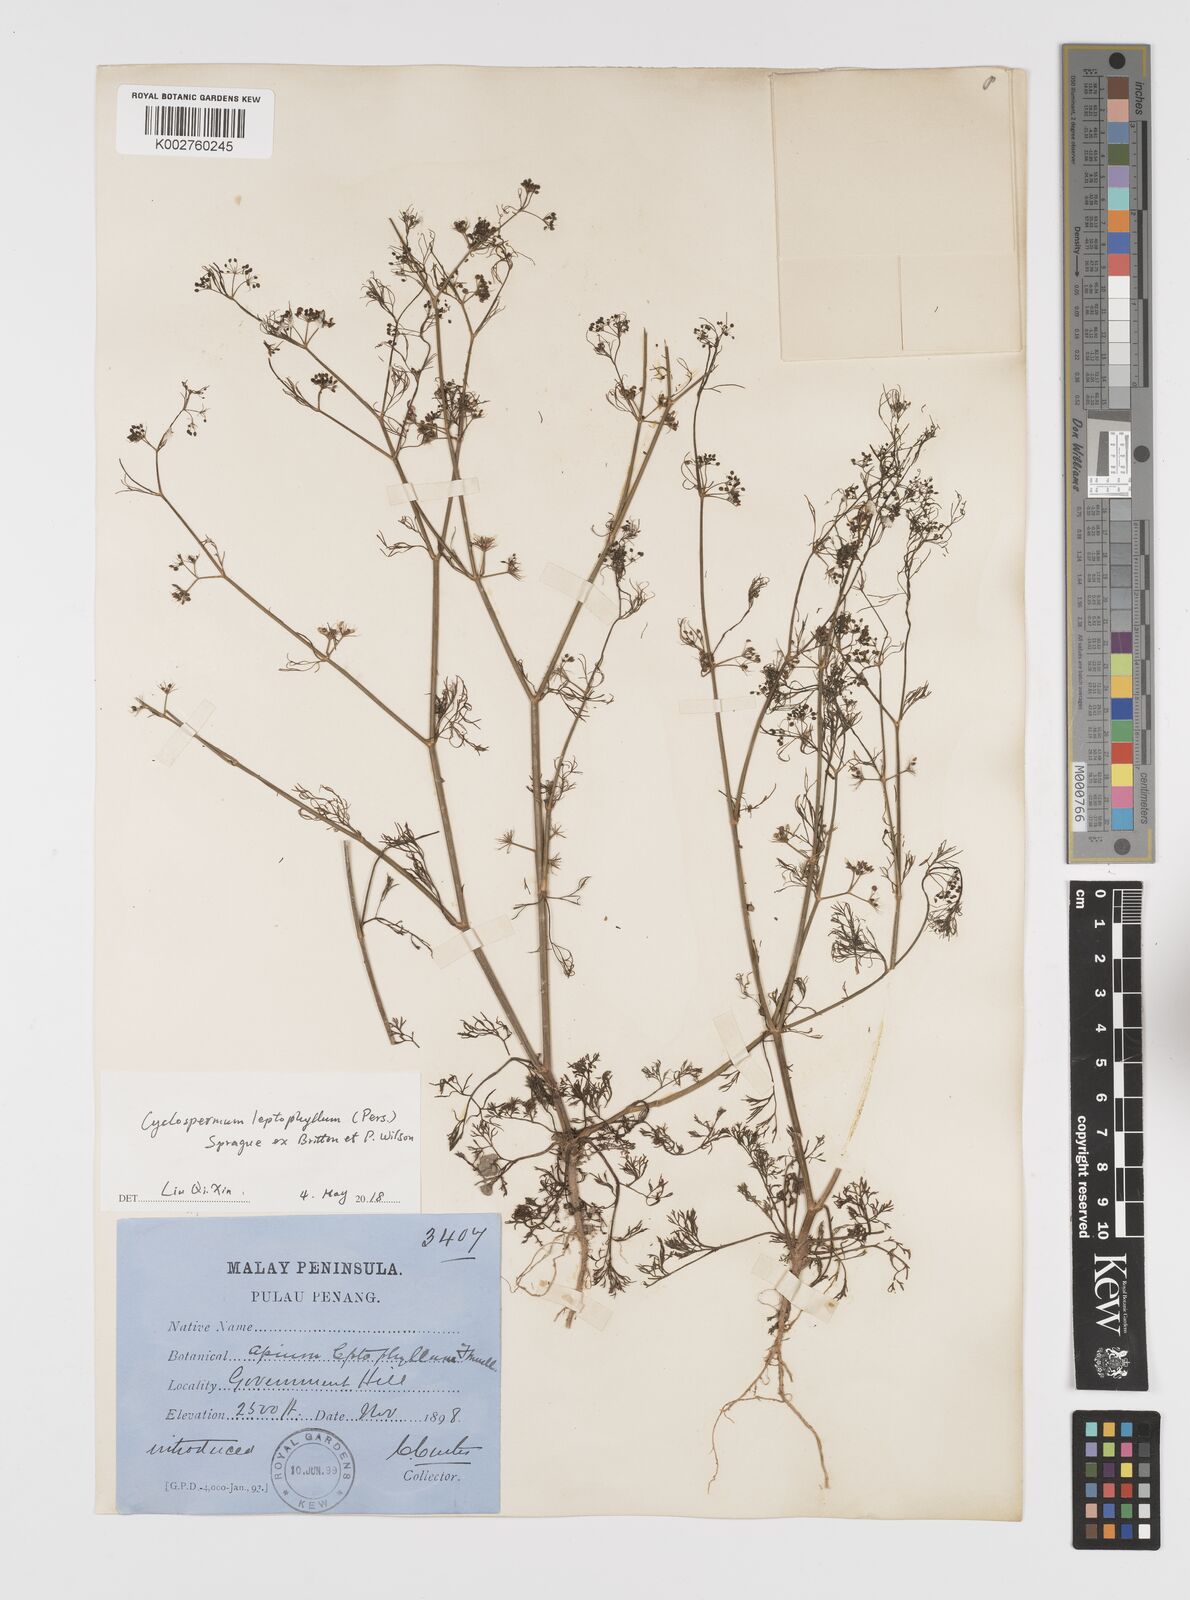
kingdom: Plantae
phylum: Tracheophyta
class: Magnoliopsida
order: Apiales
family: Apiaceae
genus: Cyclospermum
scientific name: Cyclospermum leptophyllum
